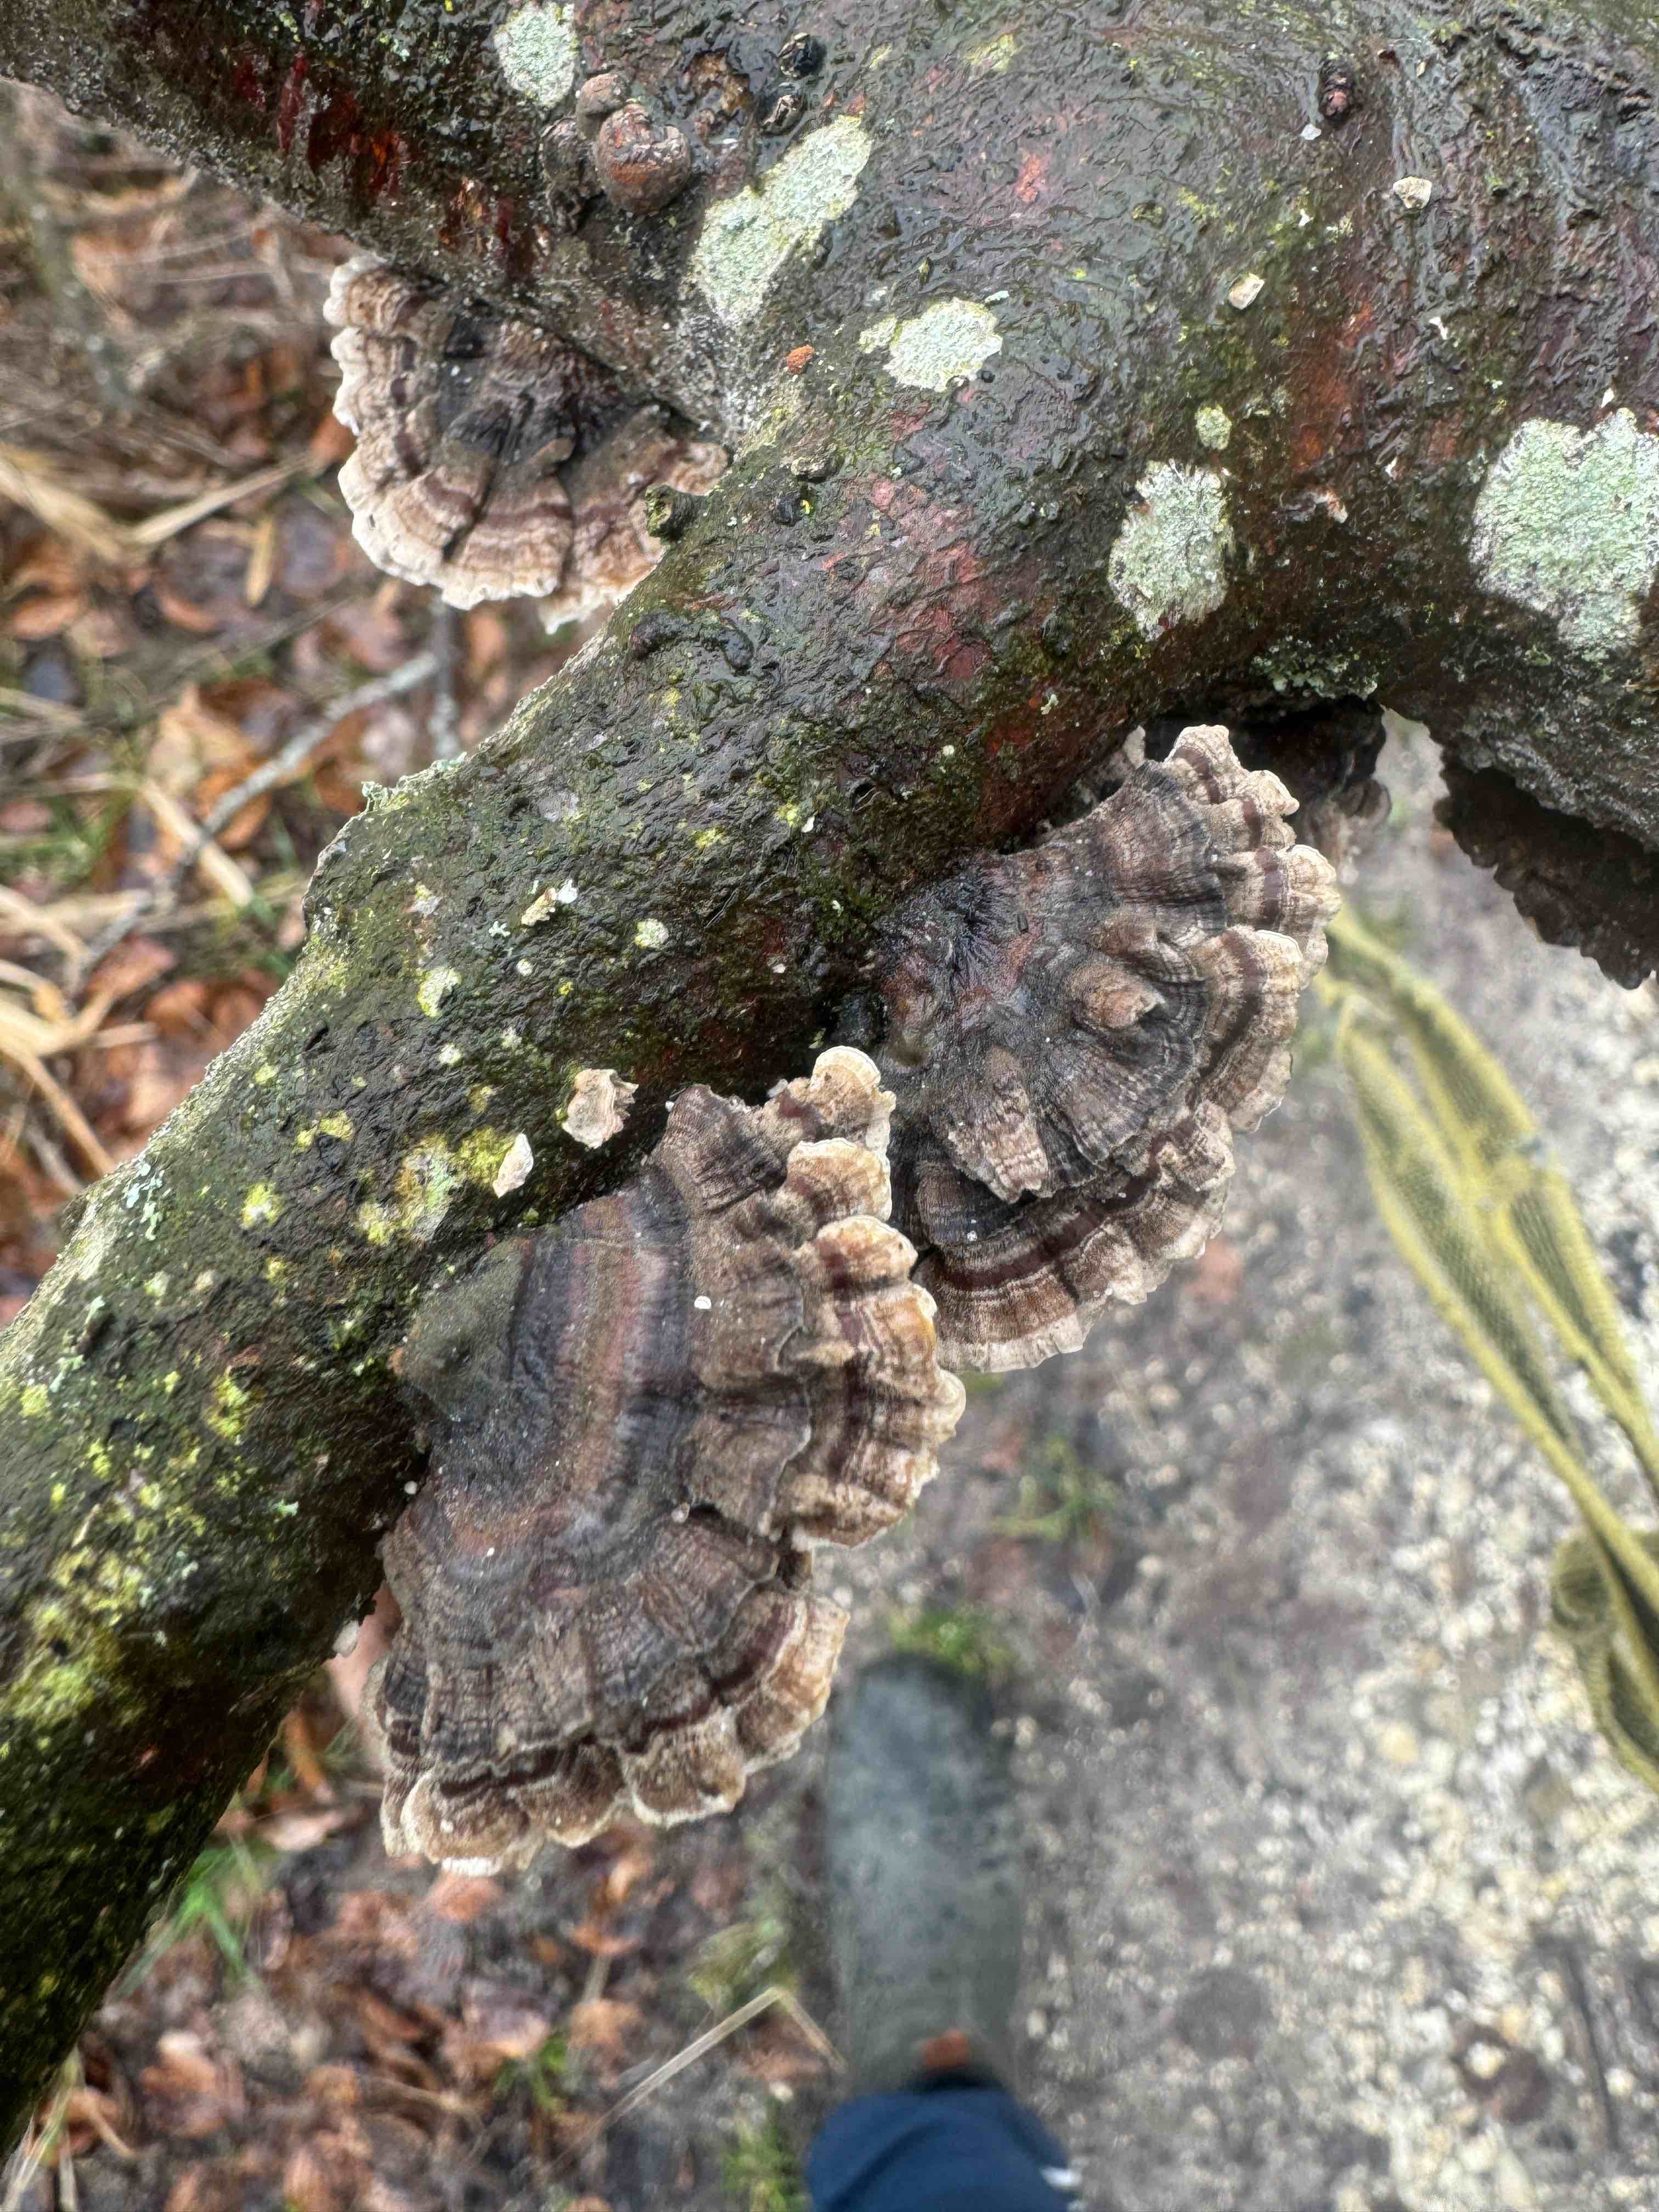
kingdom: Fungi
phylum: Basidiomycota
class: Agaricomycetes
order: Polyporales
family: Polyporaceae
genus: Trametes
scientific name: Trametes versicolor
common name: broget læderporesvamp
